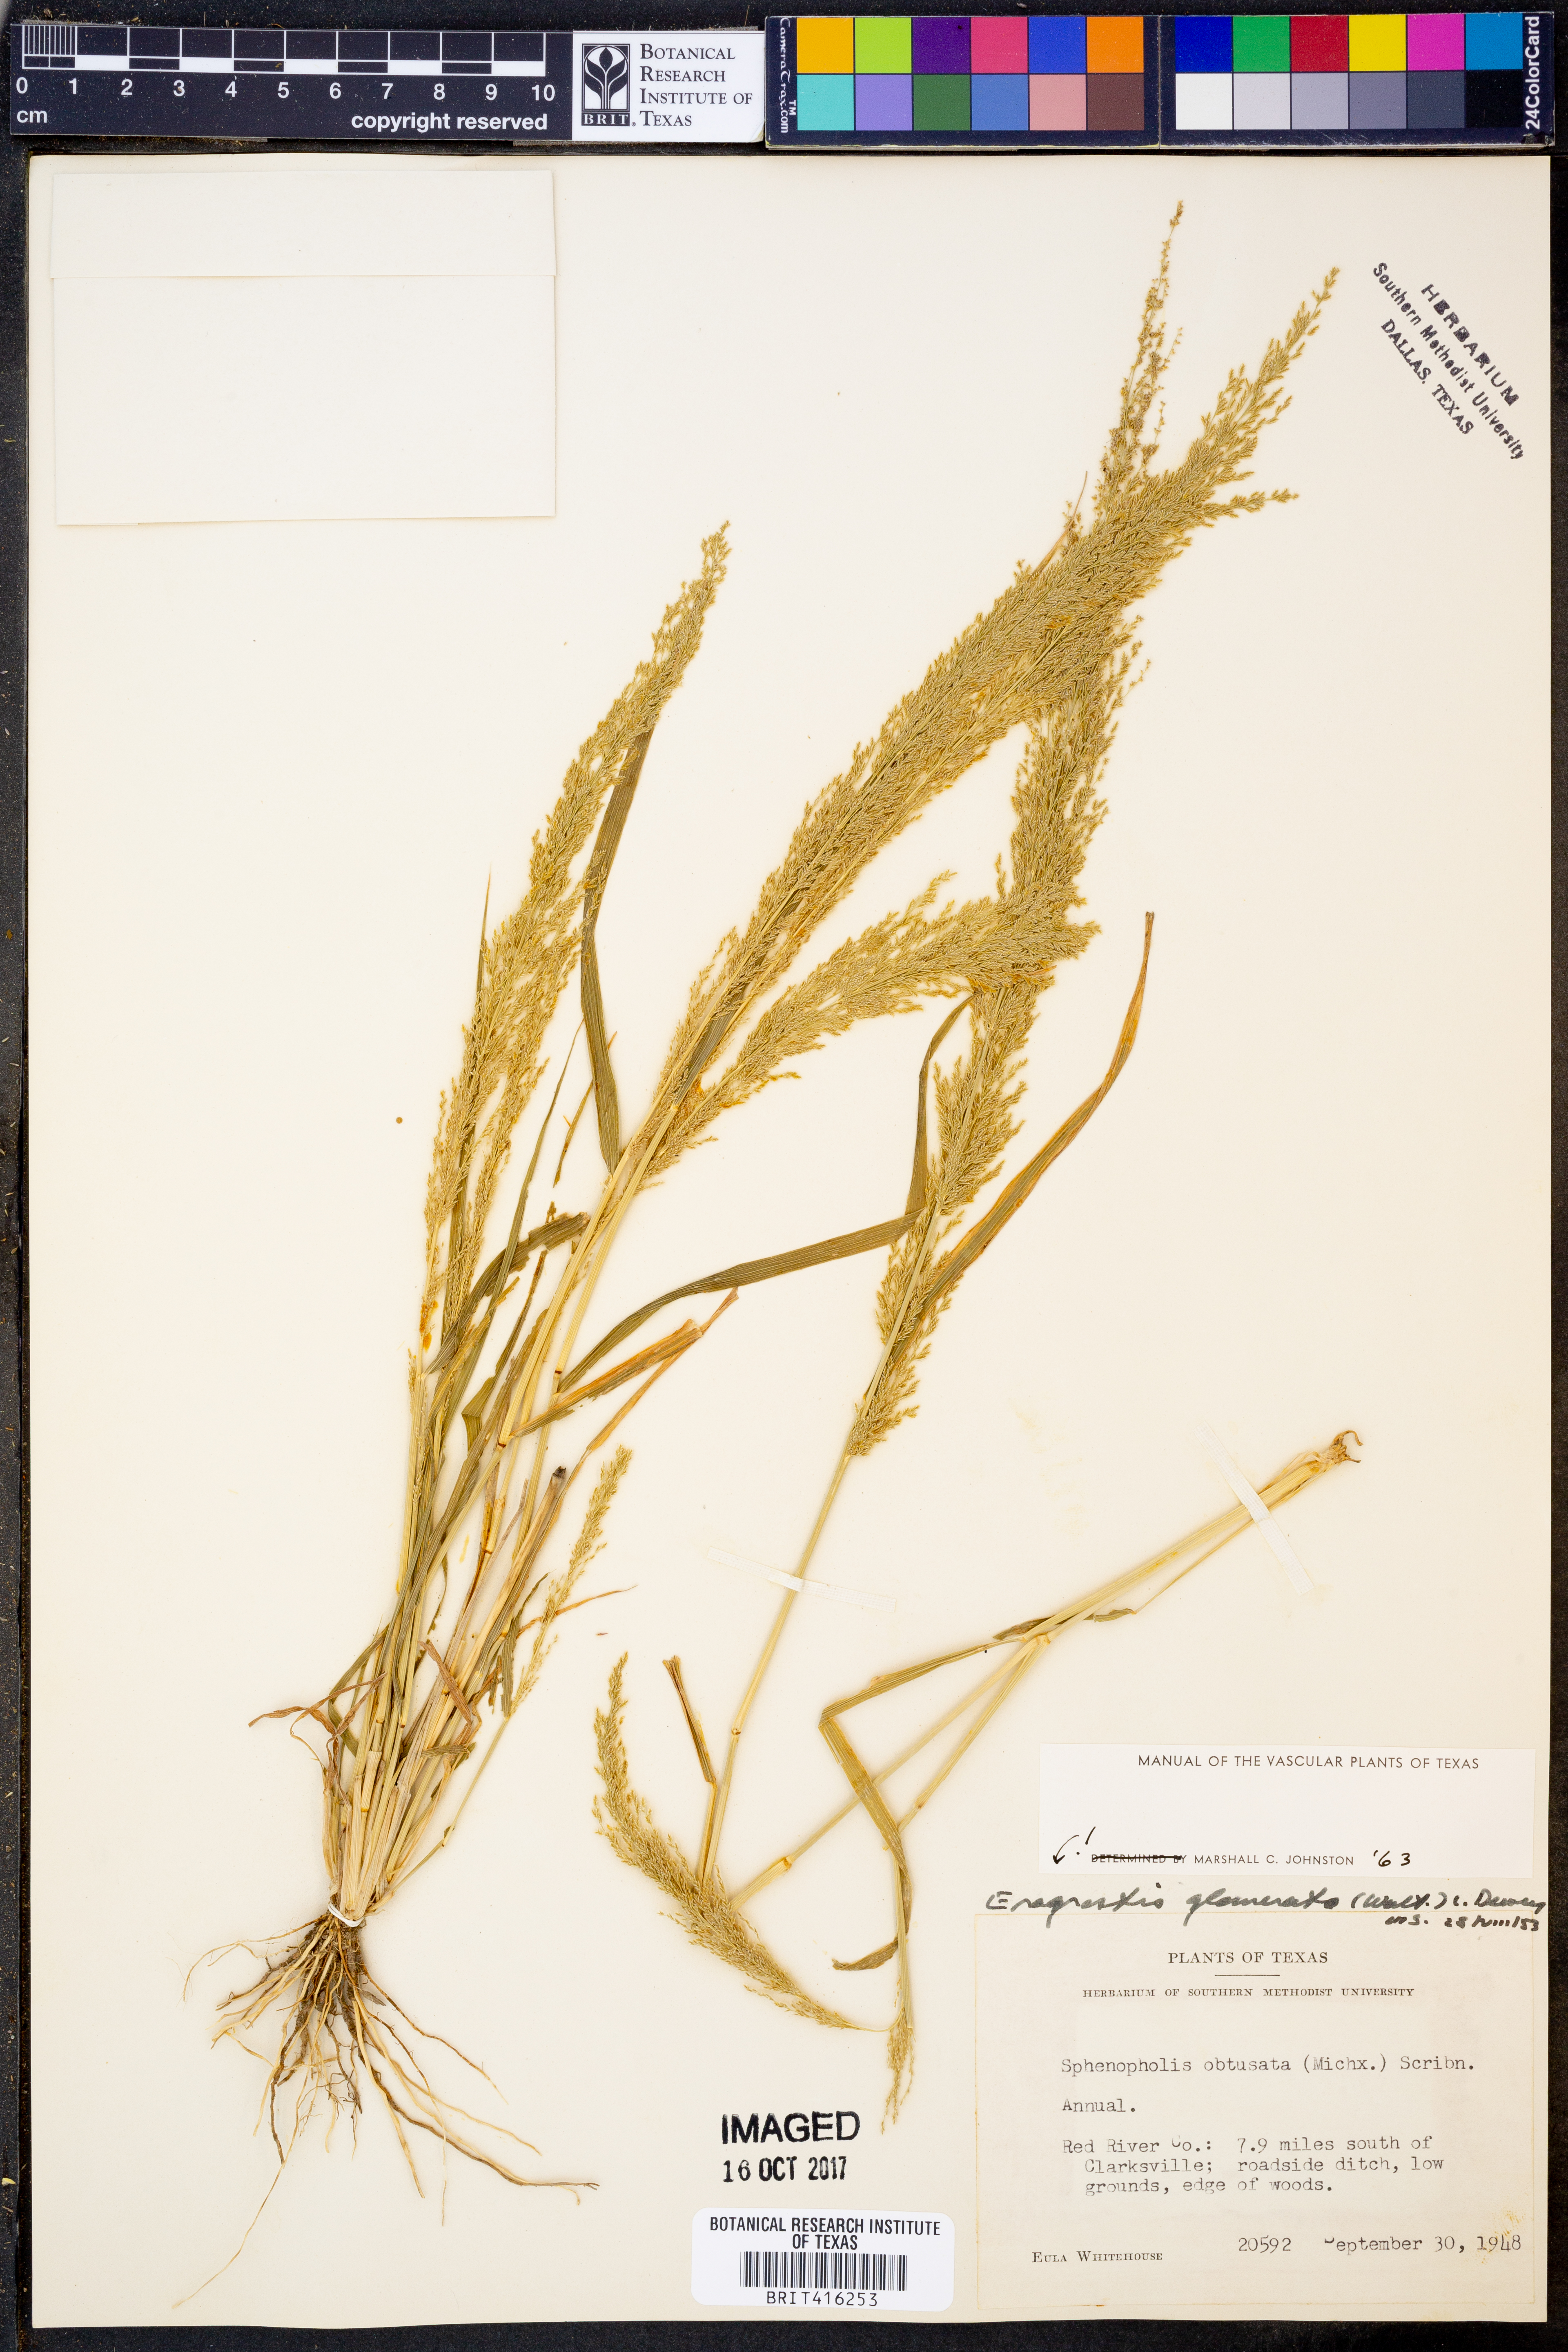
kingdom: Plantae
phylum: Tracheophyta
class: Liliopsida
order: Poales
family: Poaceae
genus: Eragrostis
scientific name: Eragrostis japonica
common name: Pond lovegrass
